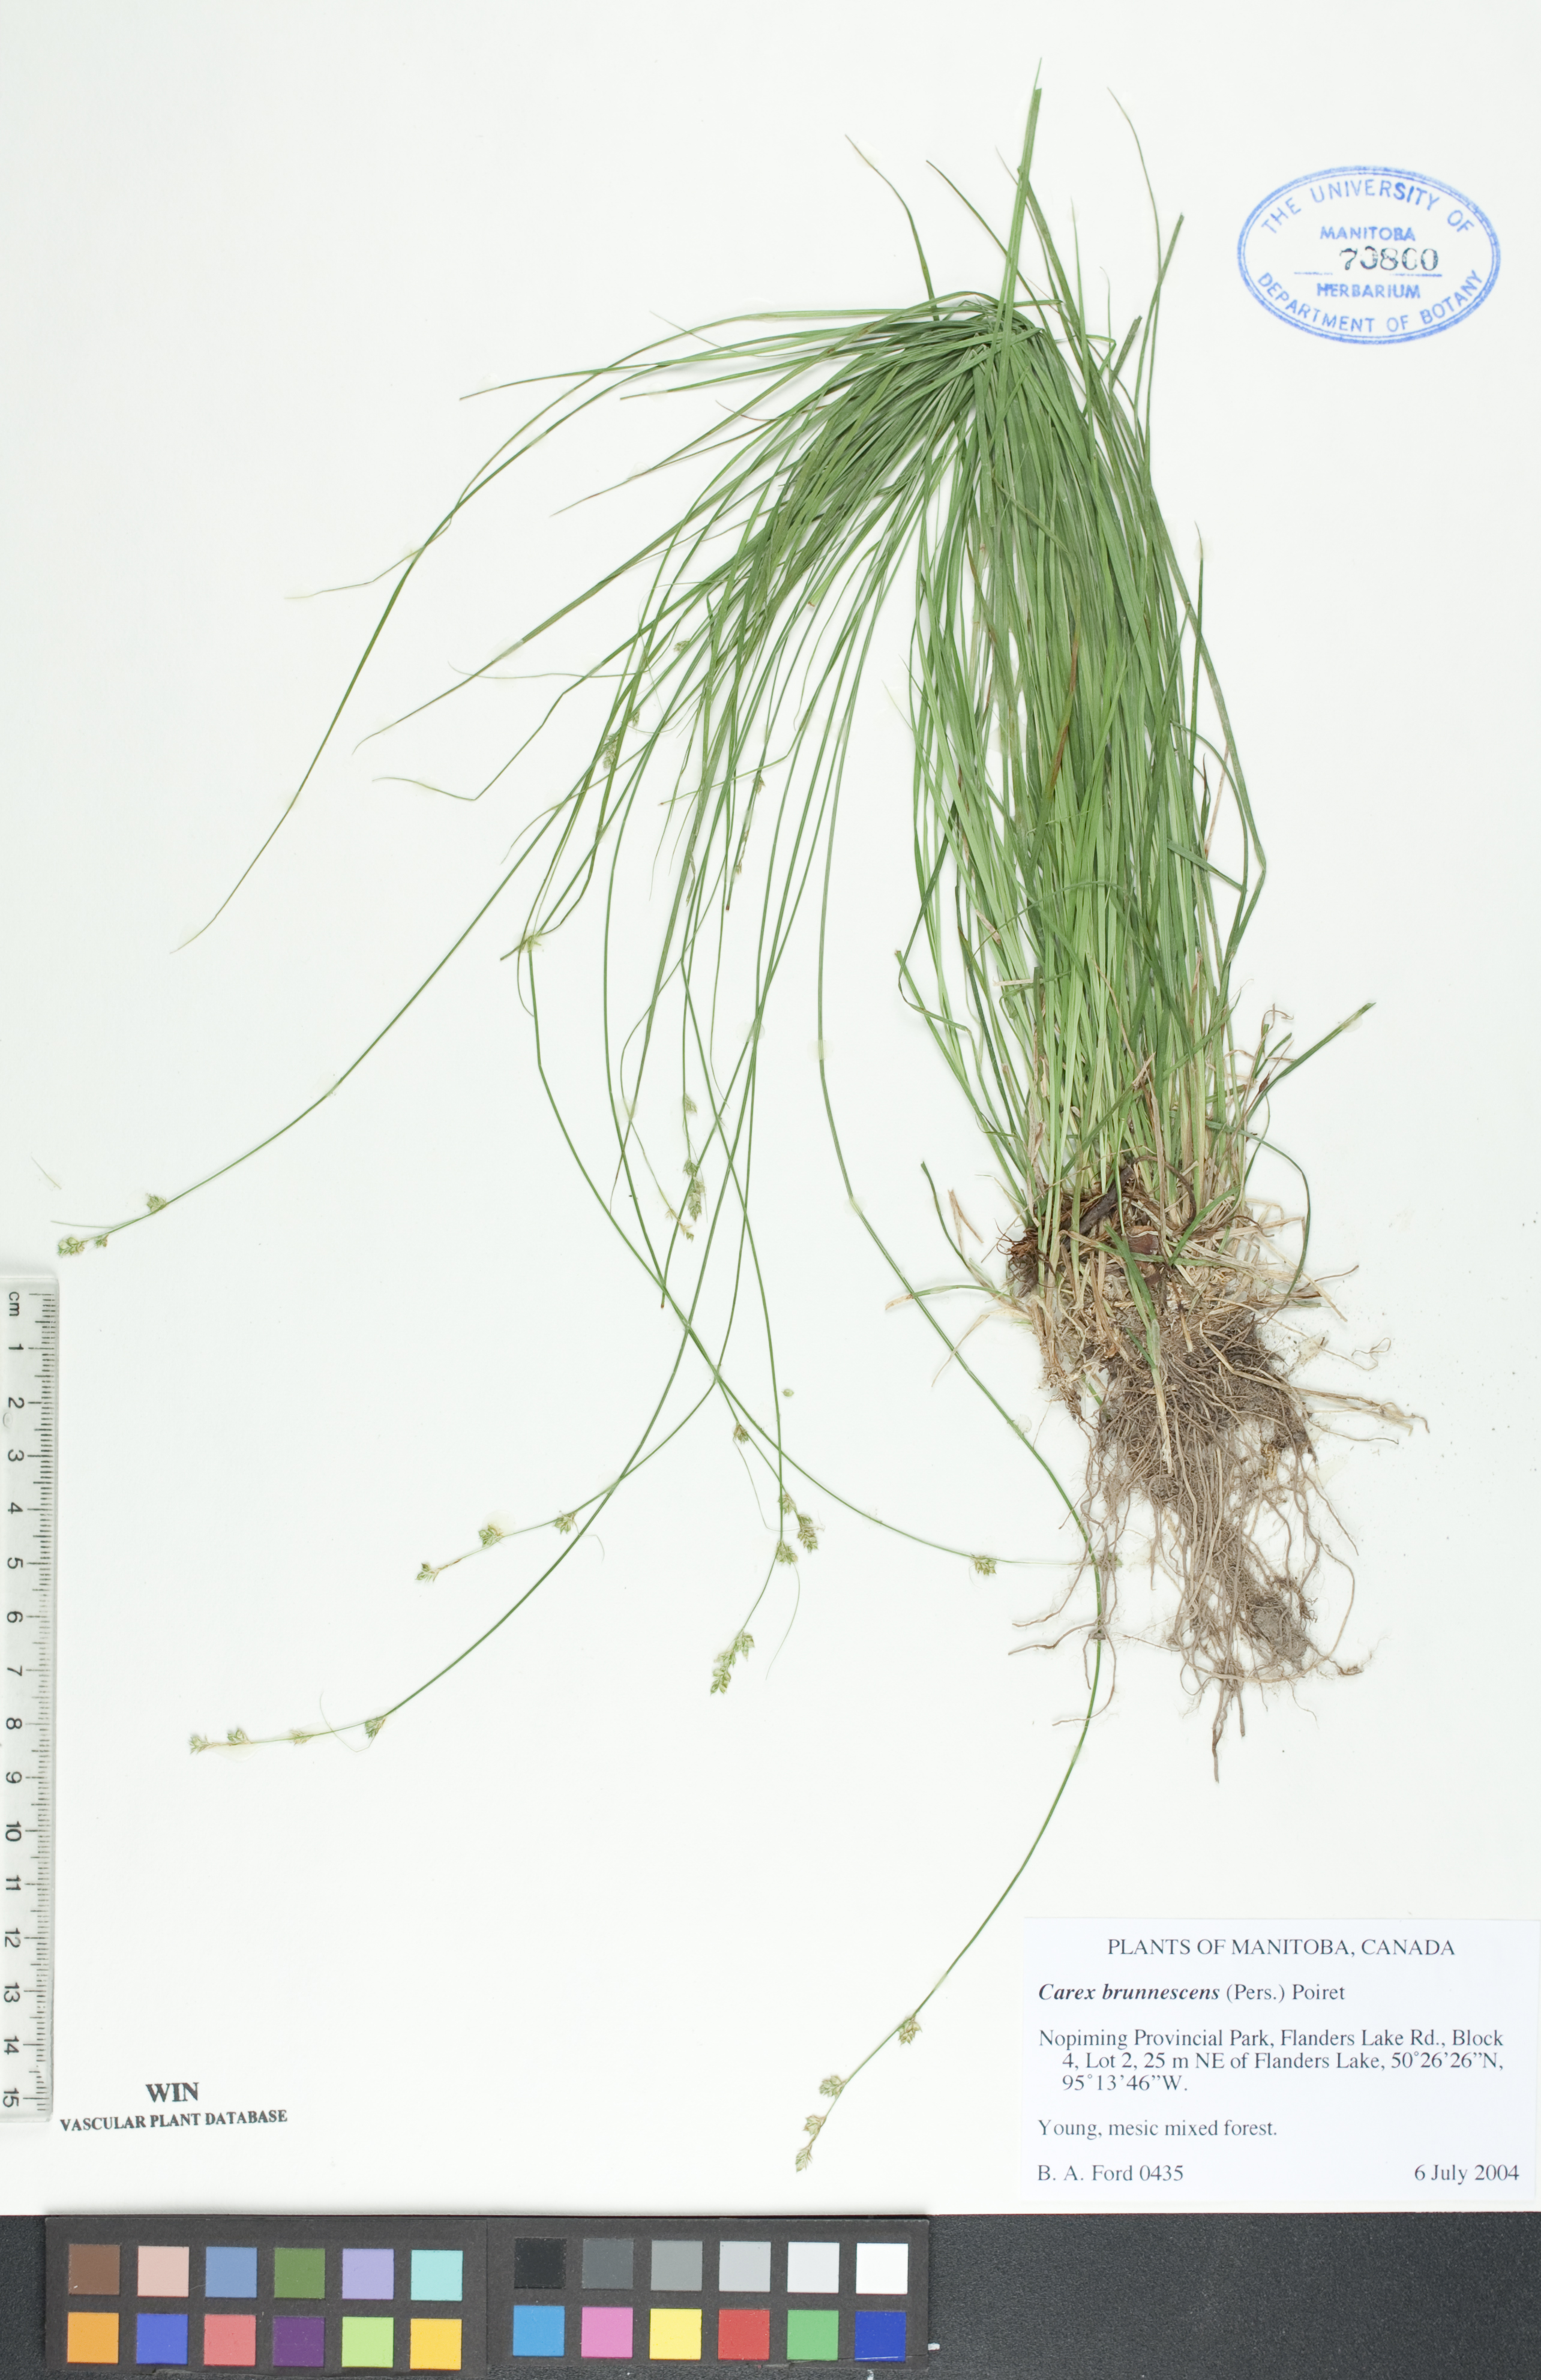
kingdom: Plantae
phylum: Tracheophyta
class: Liliopsida
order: Poales
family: Cyperaceae
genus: Carex
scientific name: Carex brunnescens
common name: Brown sedge
